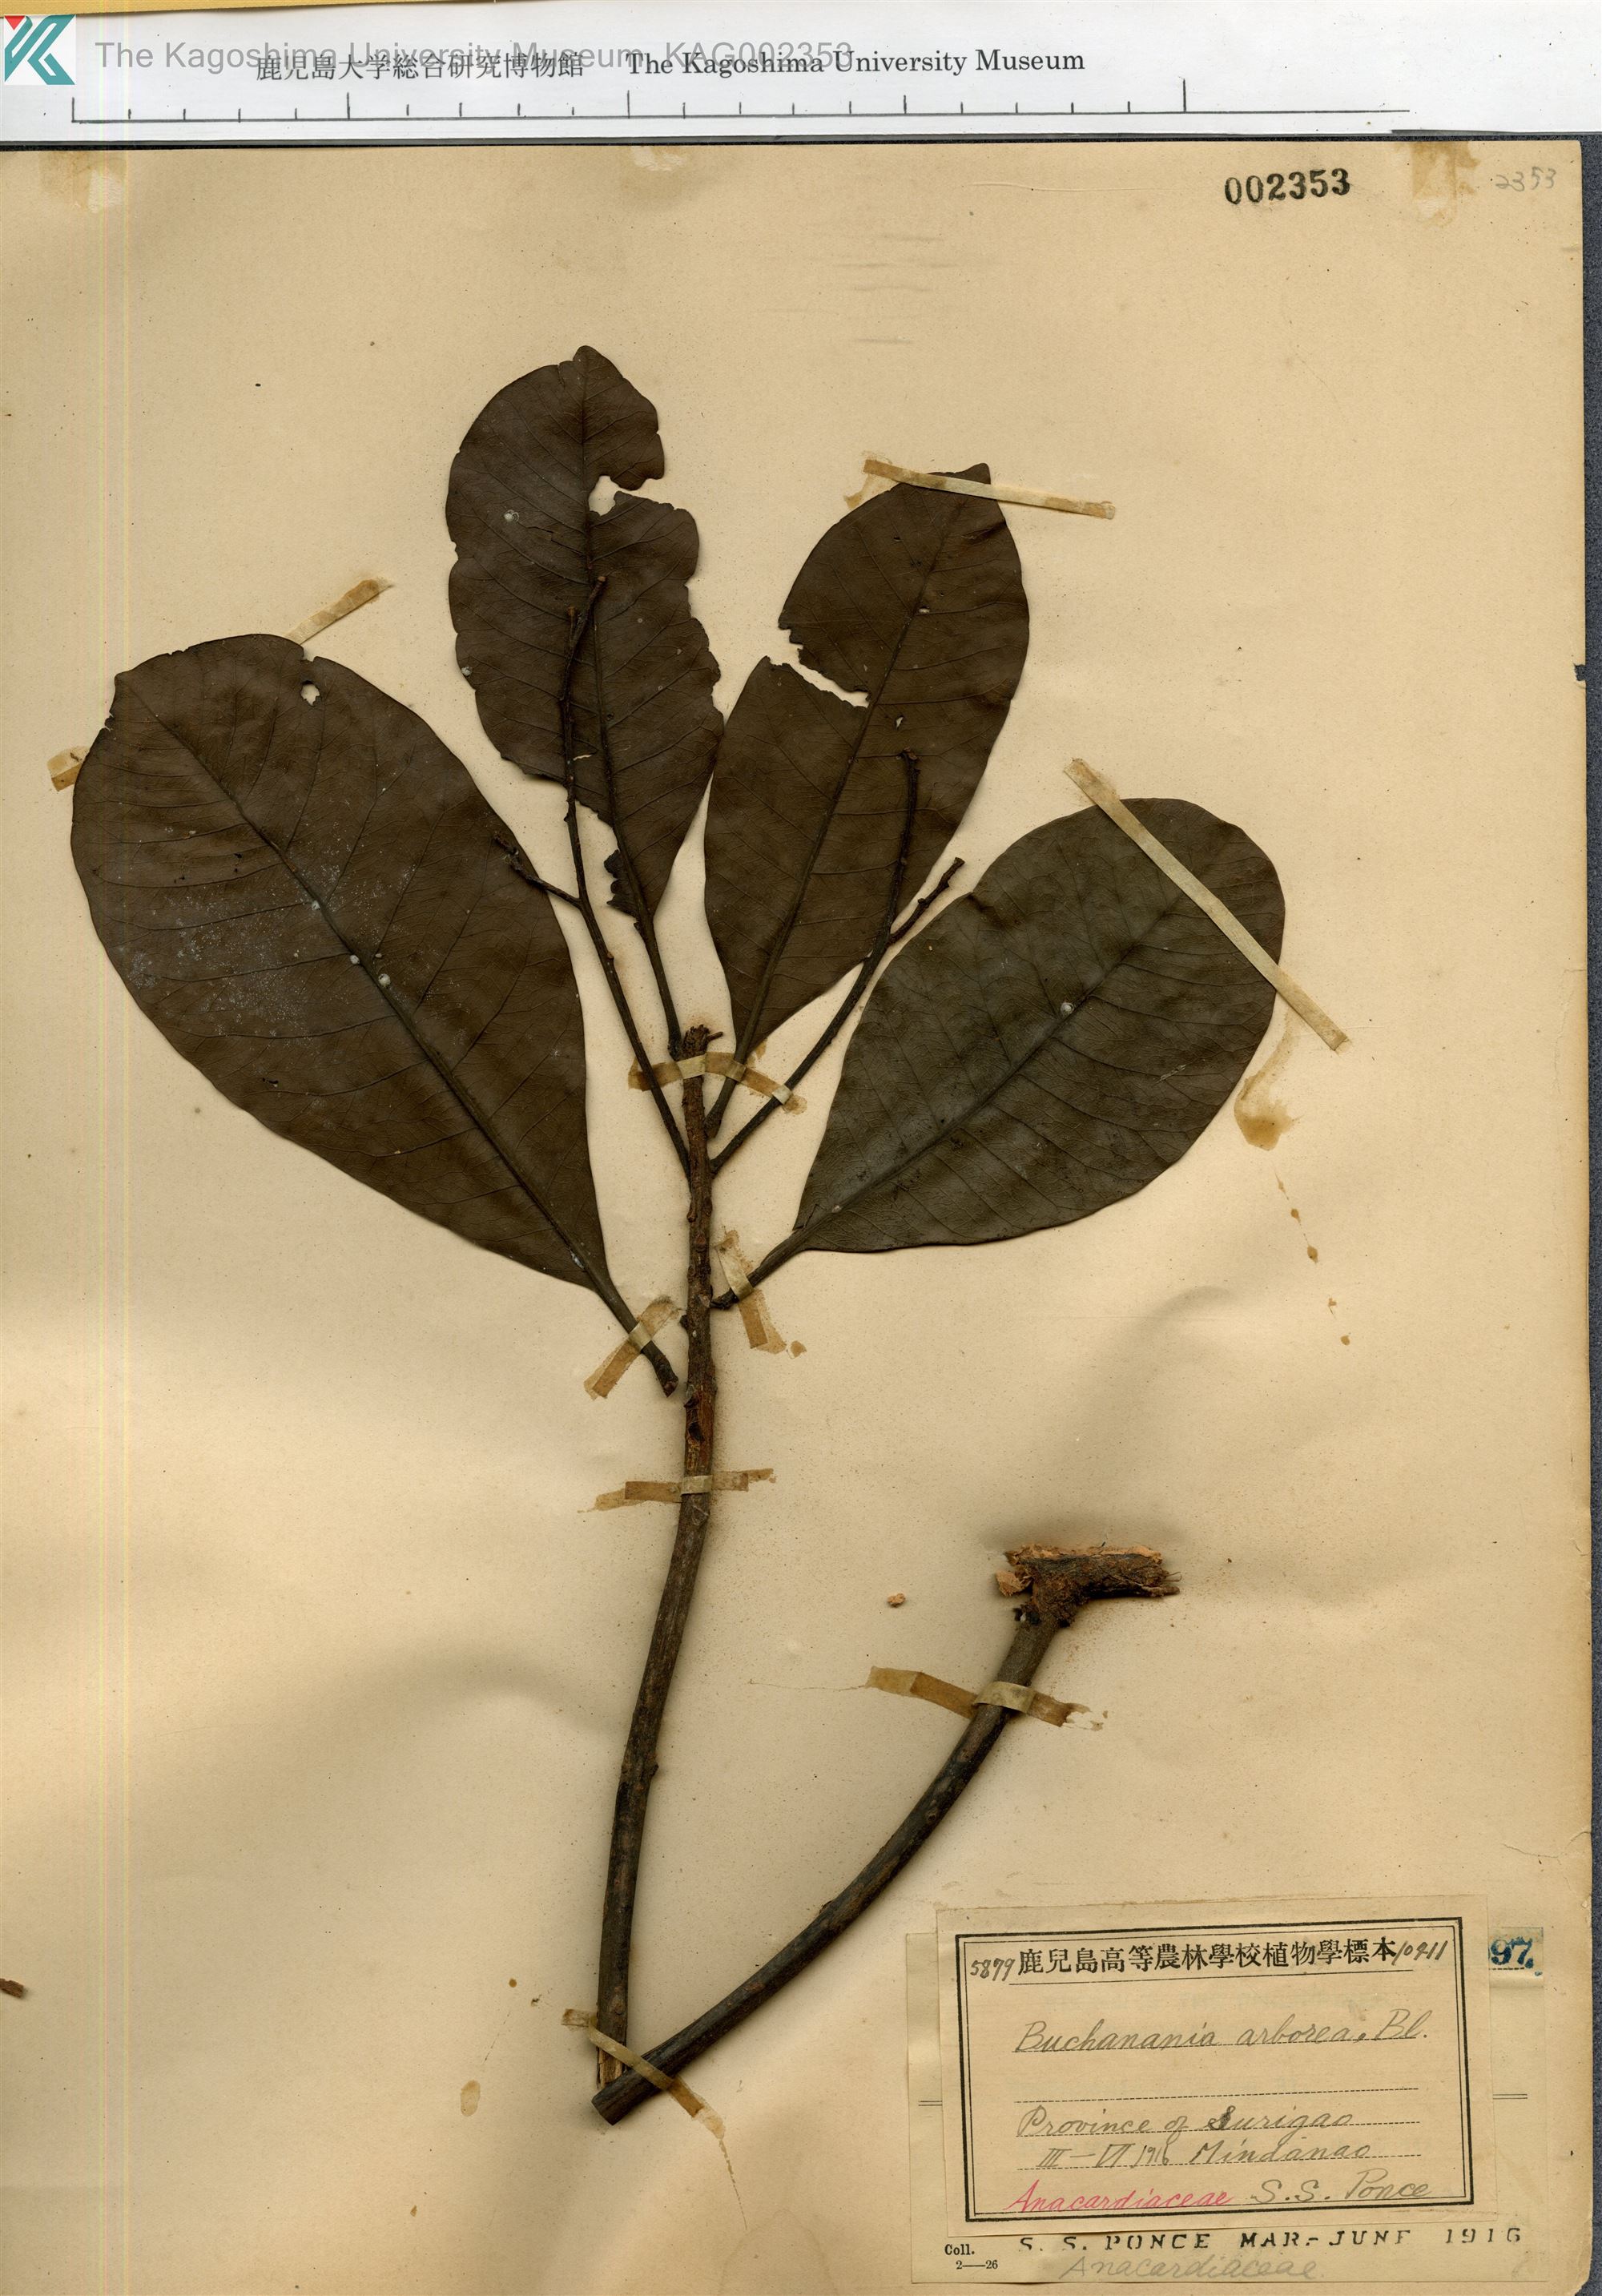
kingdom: Plantae
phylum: Tracheophyta
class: Magnoliopsida
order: Sapindales
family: Anacardiaceae
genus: Buchanania
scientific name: Buchanania arborescens
